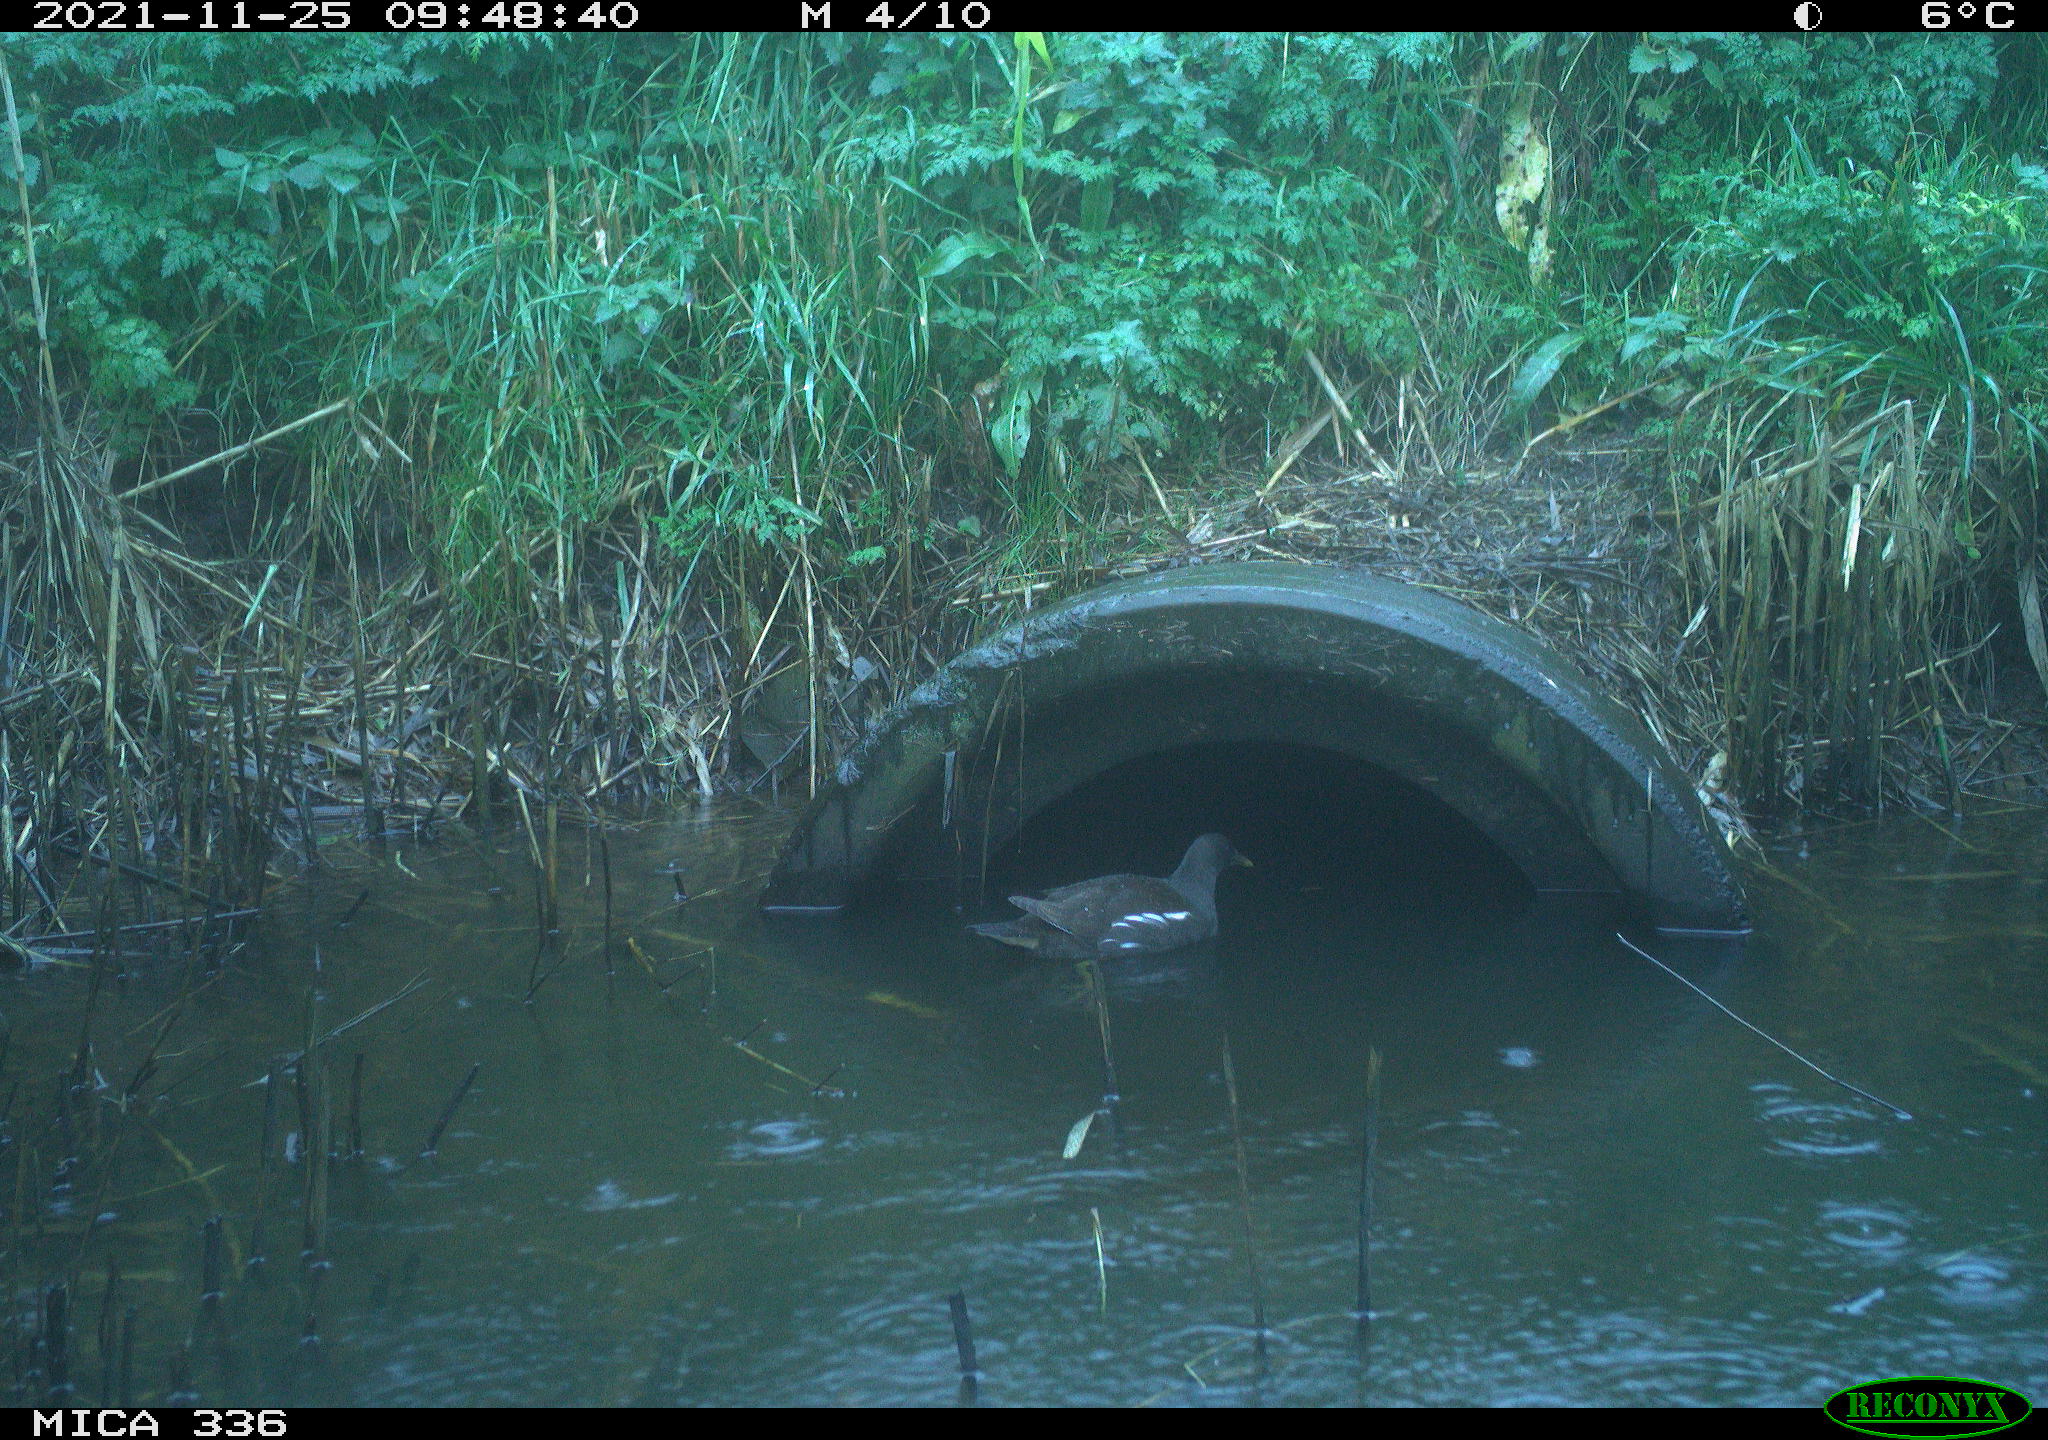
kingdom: Animalia
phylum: Chordata
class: Aves
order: Gruiformes
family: Rallidae
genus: Gallinula
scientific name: Gallinula chloropus
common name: Common moorhen
